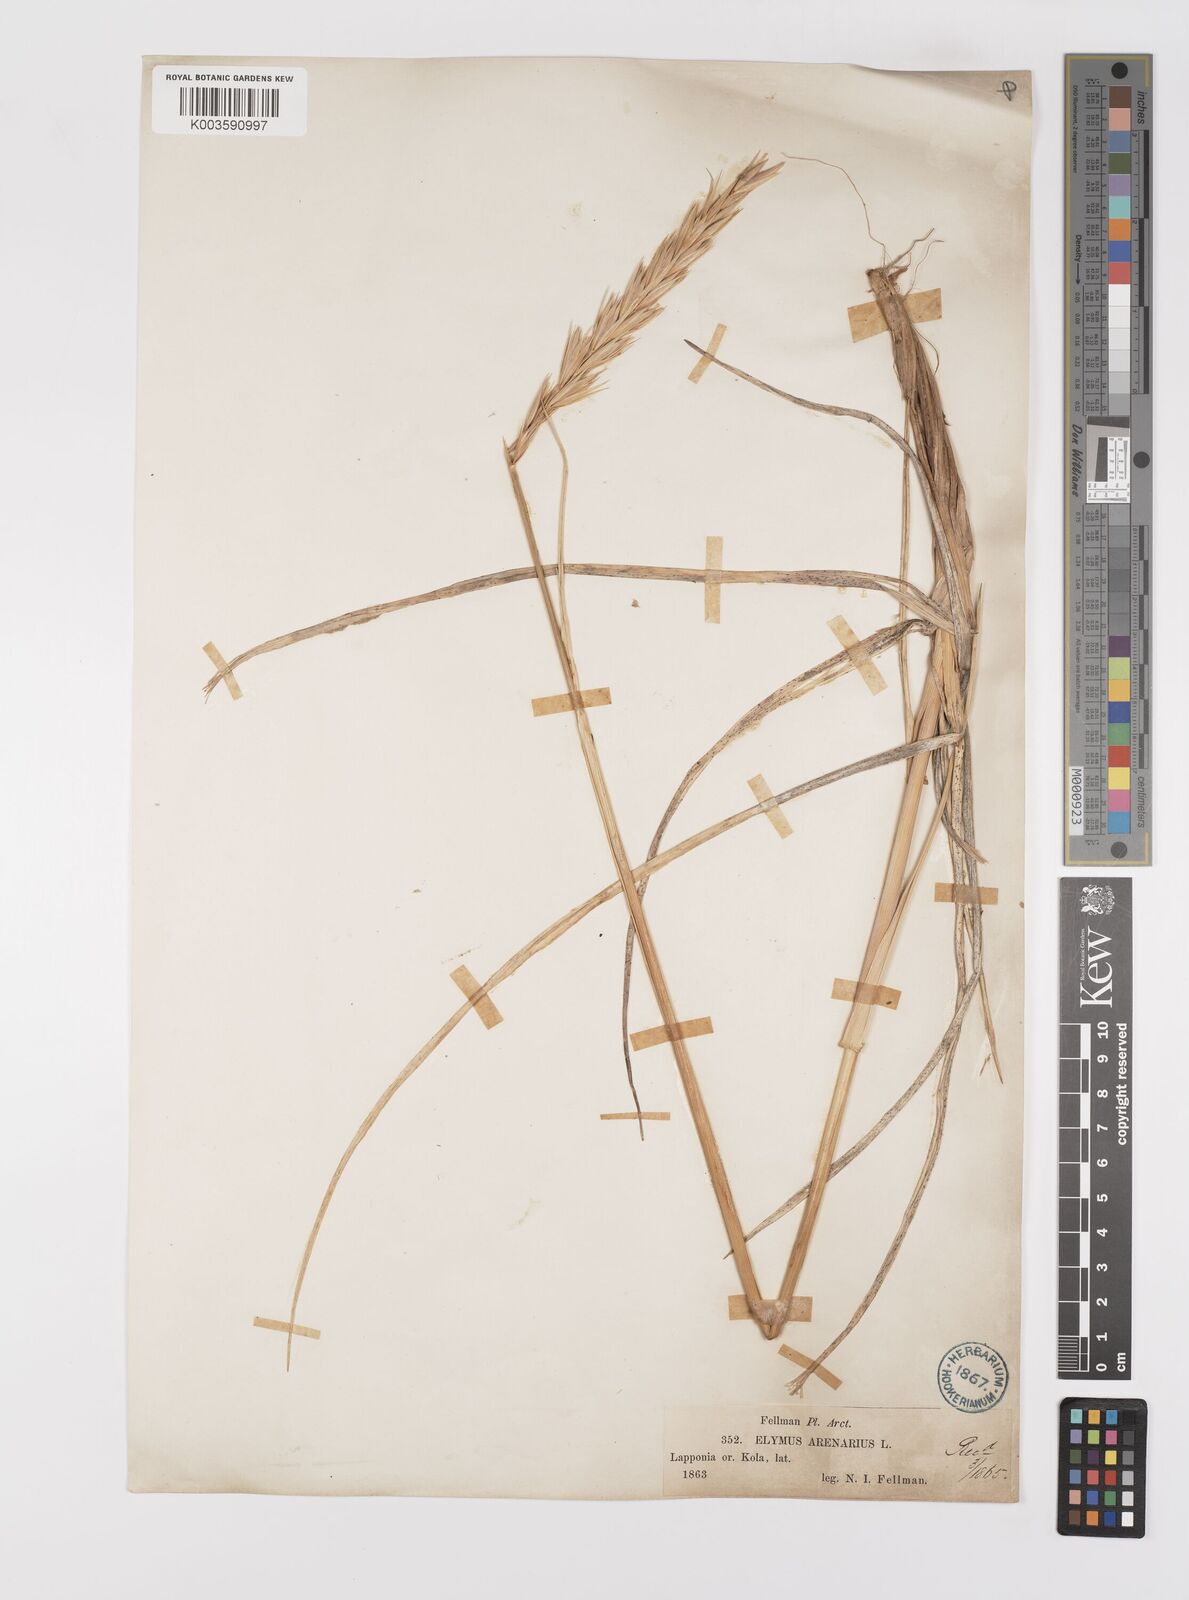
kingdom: Plantae
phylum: Tracheophyta
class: Liliopsida
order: Poales
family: Poaceae
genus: Leymus
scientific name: Leymus arenarius
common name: Lyme-grass
